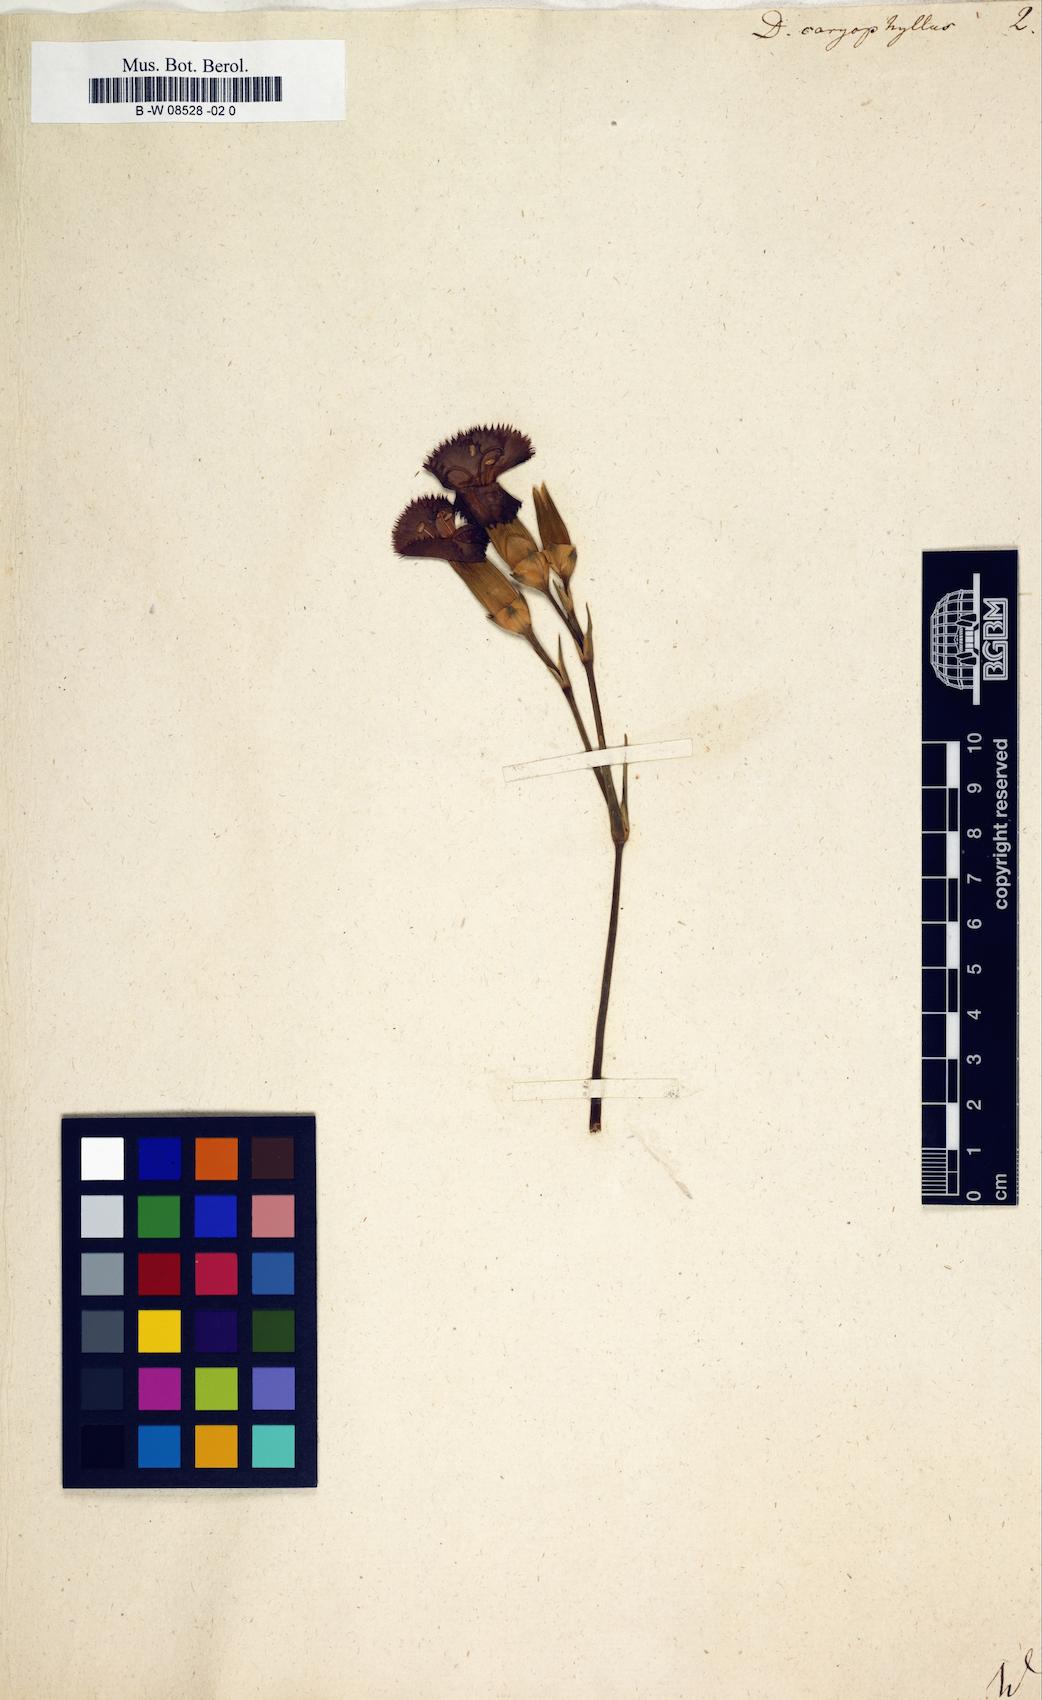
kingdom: Plantae
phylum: Tracheophyta
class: Magnoliopsida
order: Caryophyllales
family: Caryophyllaceae
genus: Dianthus
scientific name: Dianthus caryophyllus
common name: Clove pink
